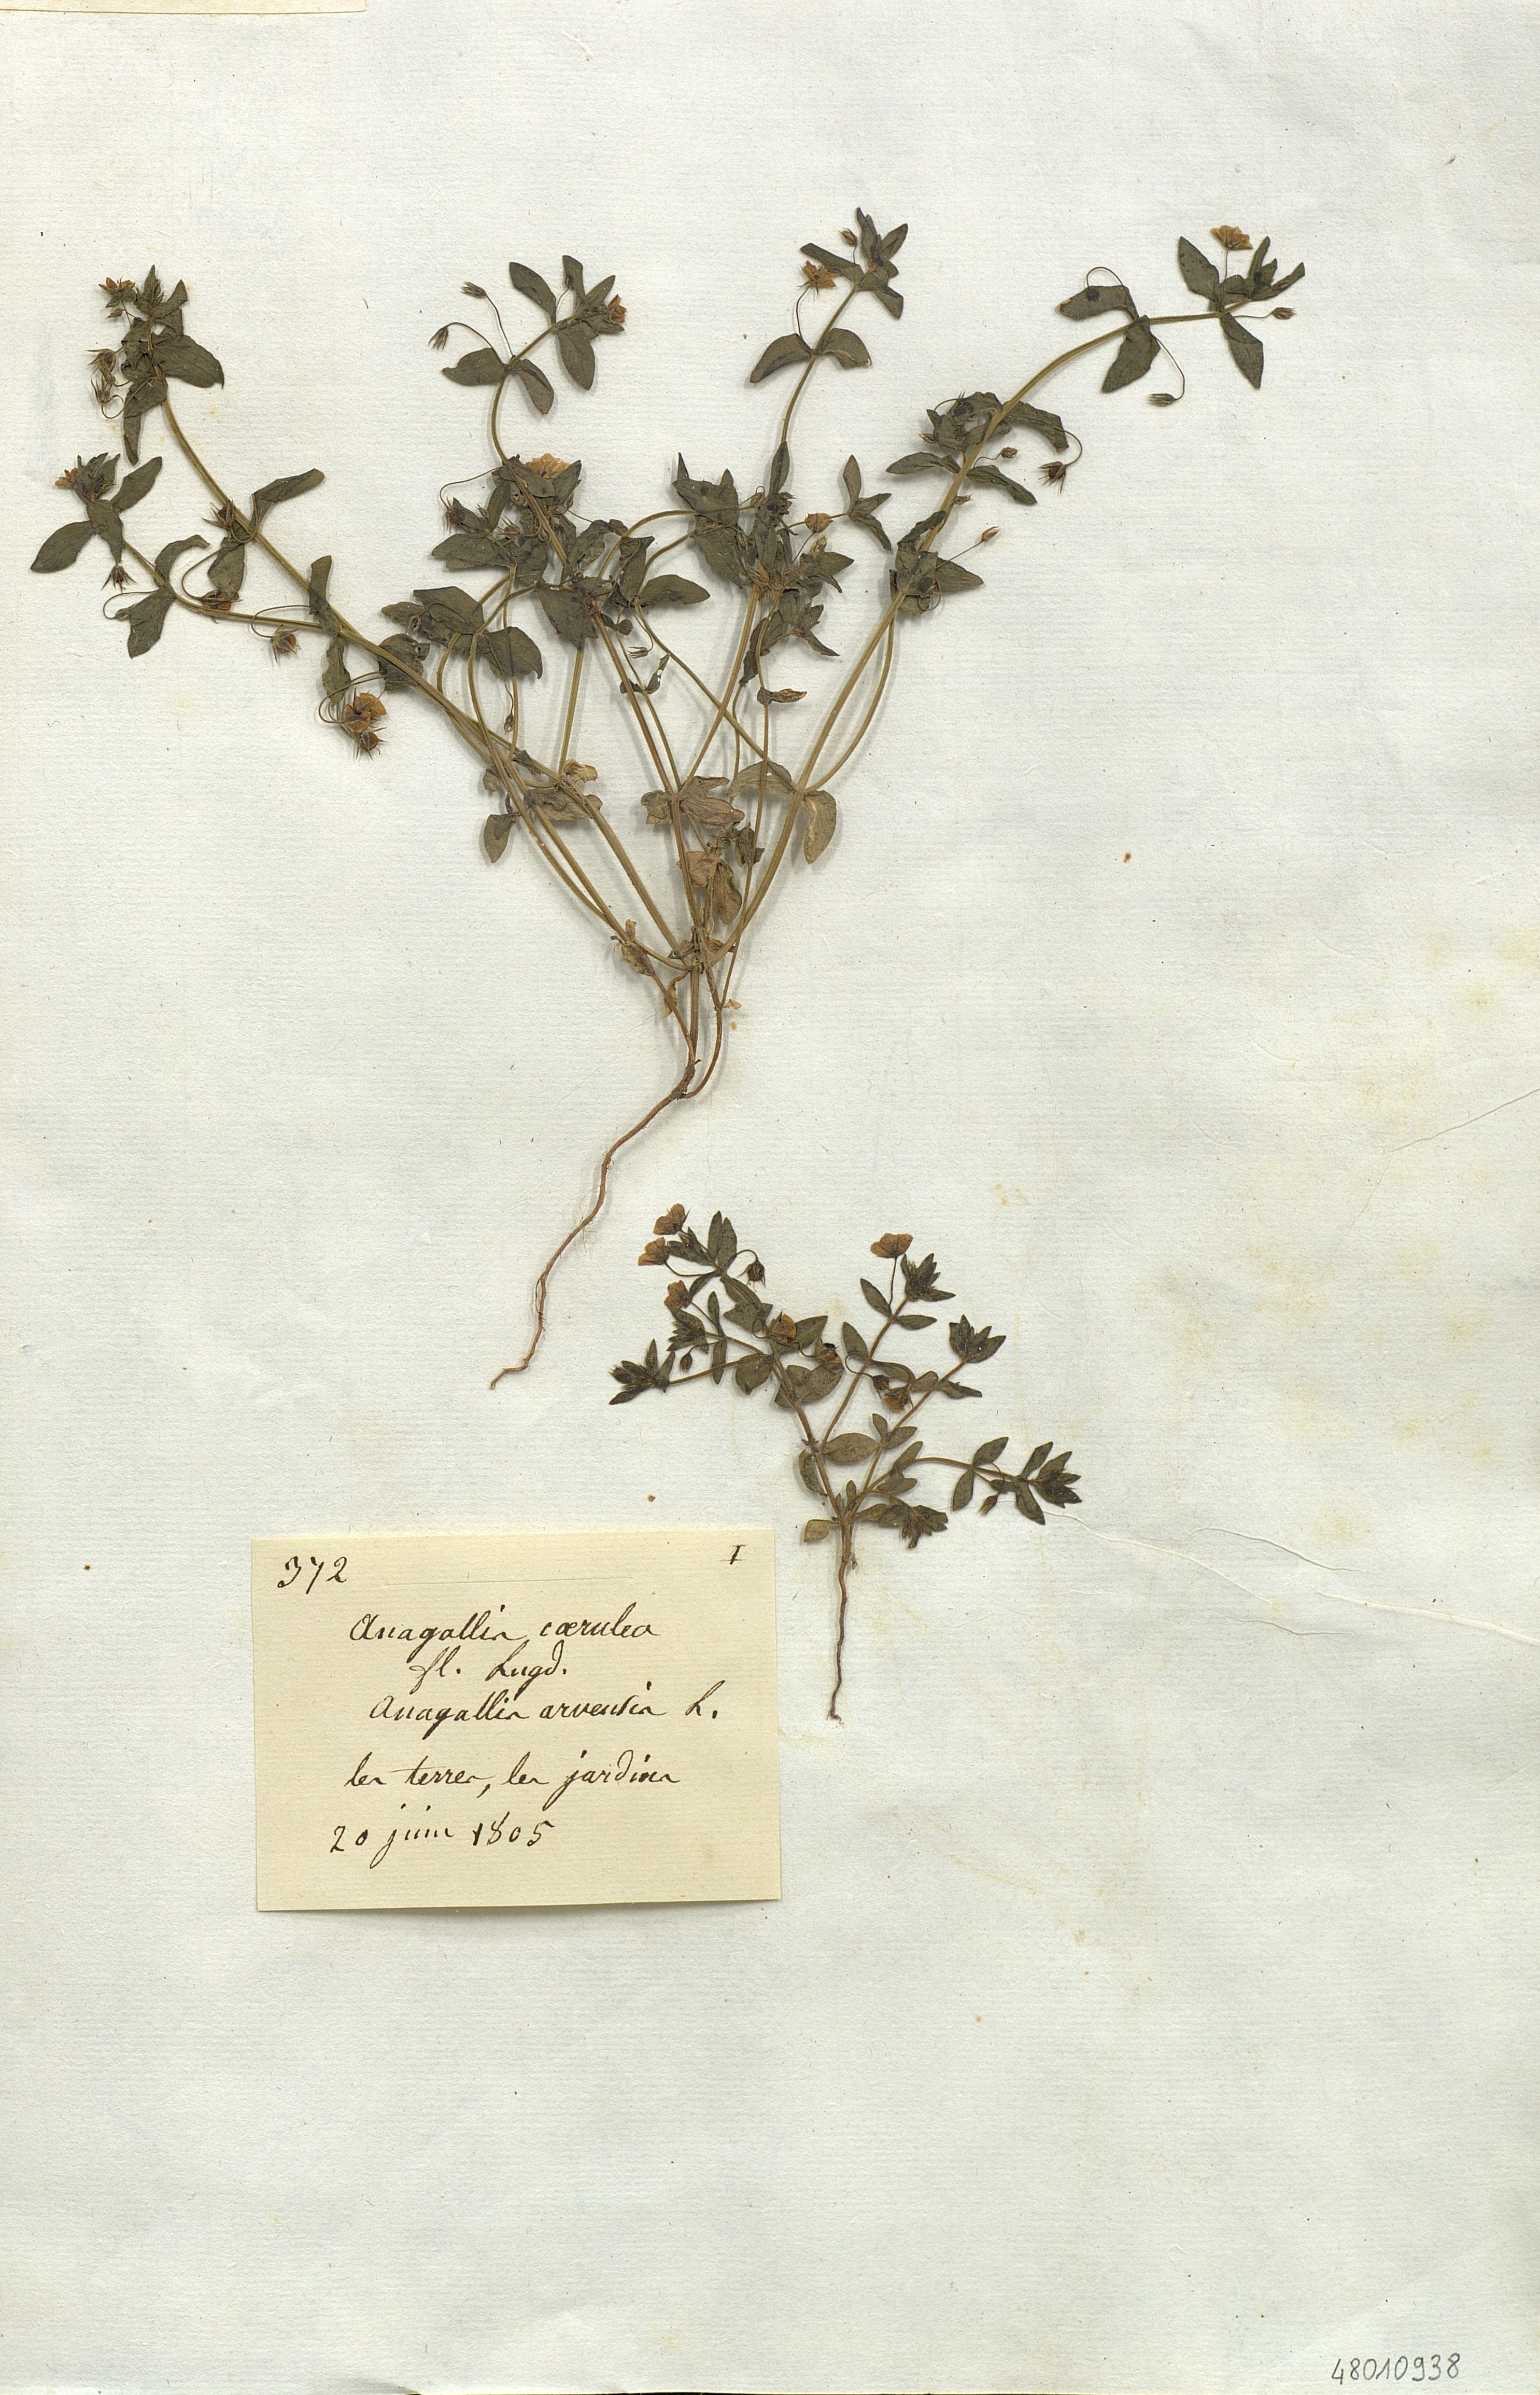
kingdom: Plantae
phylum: Tracheophyta
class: Magnoliopsida
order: Ericales
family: Primulaceae
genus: Lysimachia
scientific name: Lysimachia
